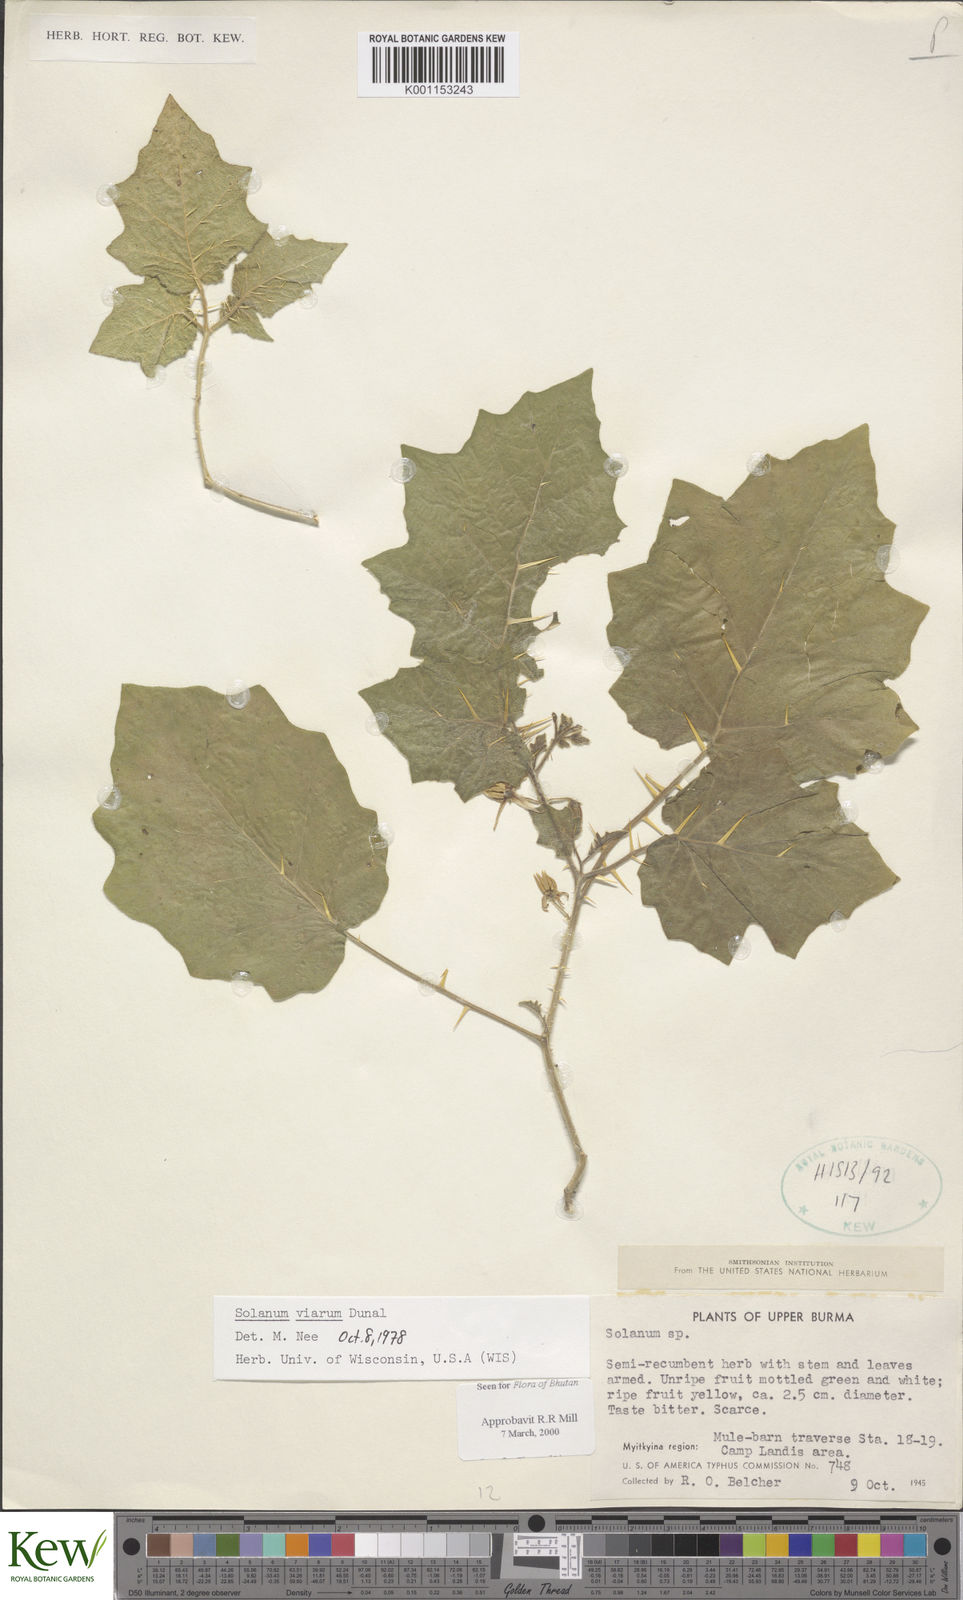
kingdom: Plantae
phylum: Tracheophyta
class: Magnoliopsida
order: Solanales
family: Solanaceae
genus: Solanum
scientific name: Solanum viarum
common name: Tropical soda apple
